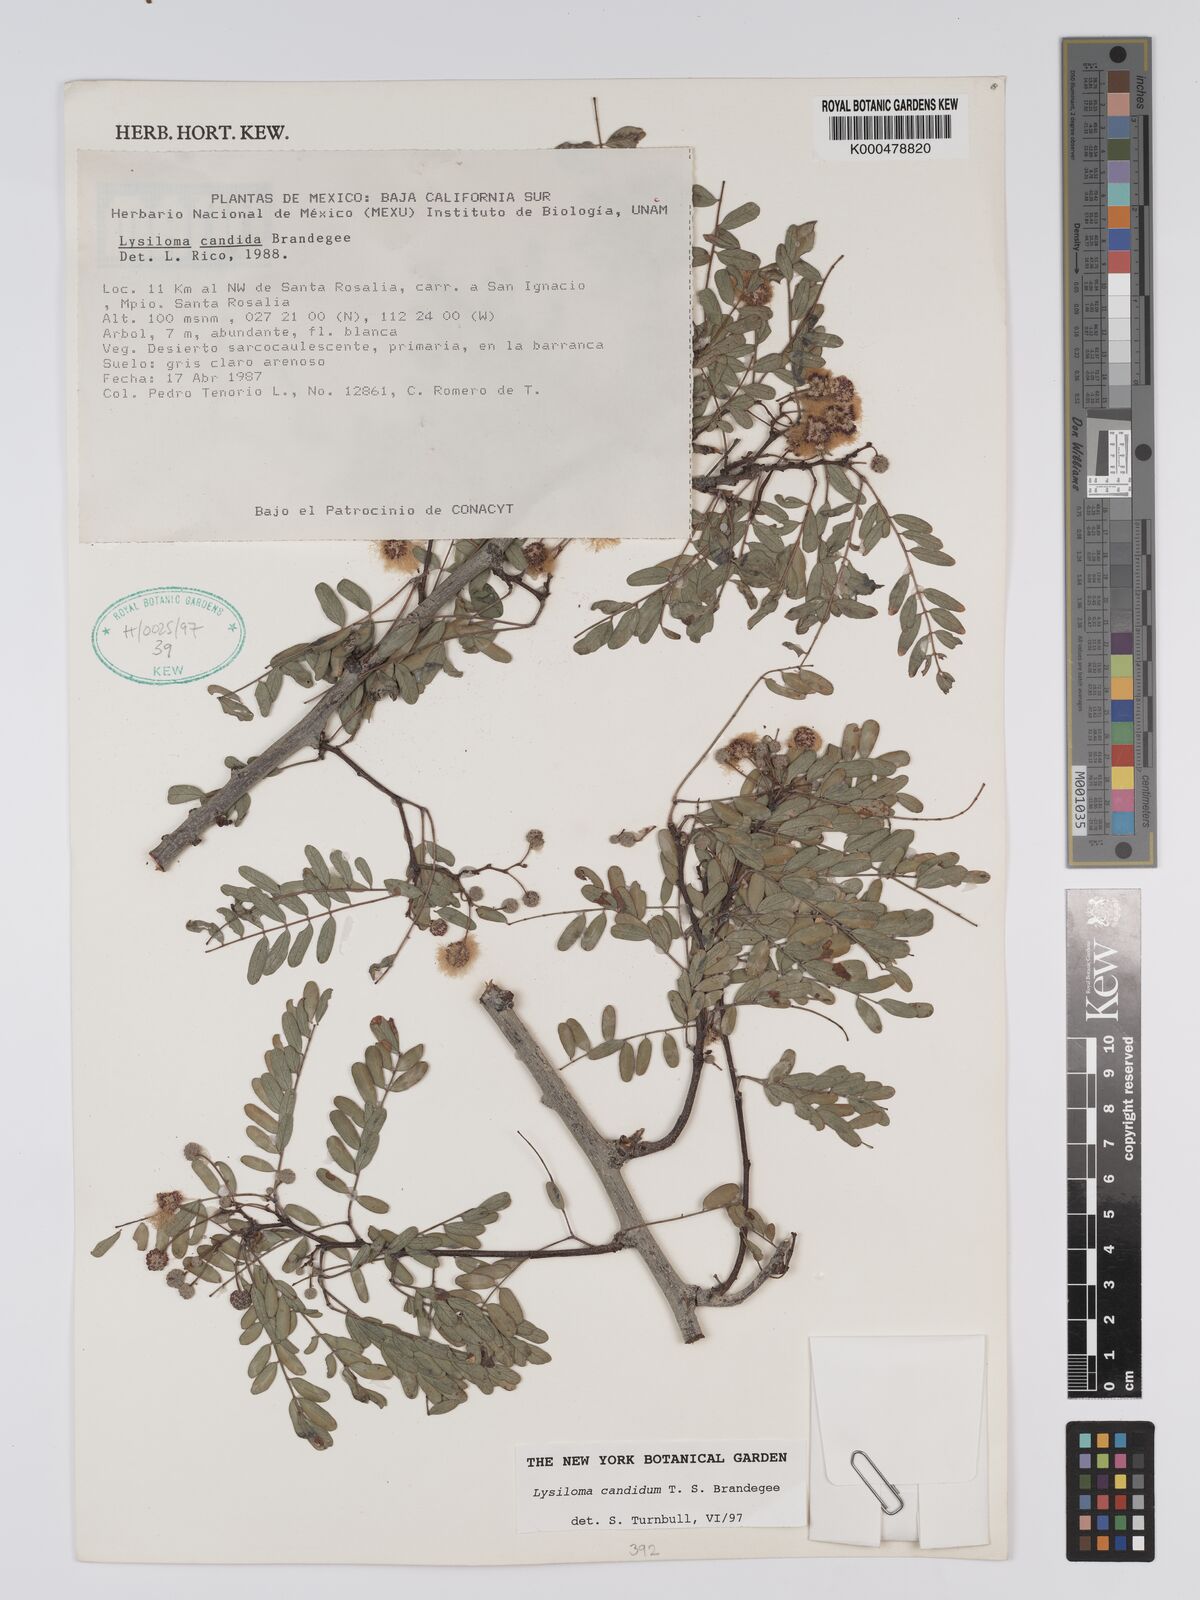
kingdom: Plantae
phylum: Tracheophyta
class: Magnoliopsida
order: Fabales
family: Fabaceae
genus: Lysiloma
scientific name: Lysiloma candidum
